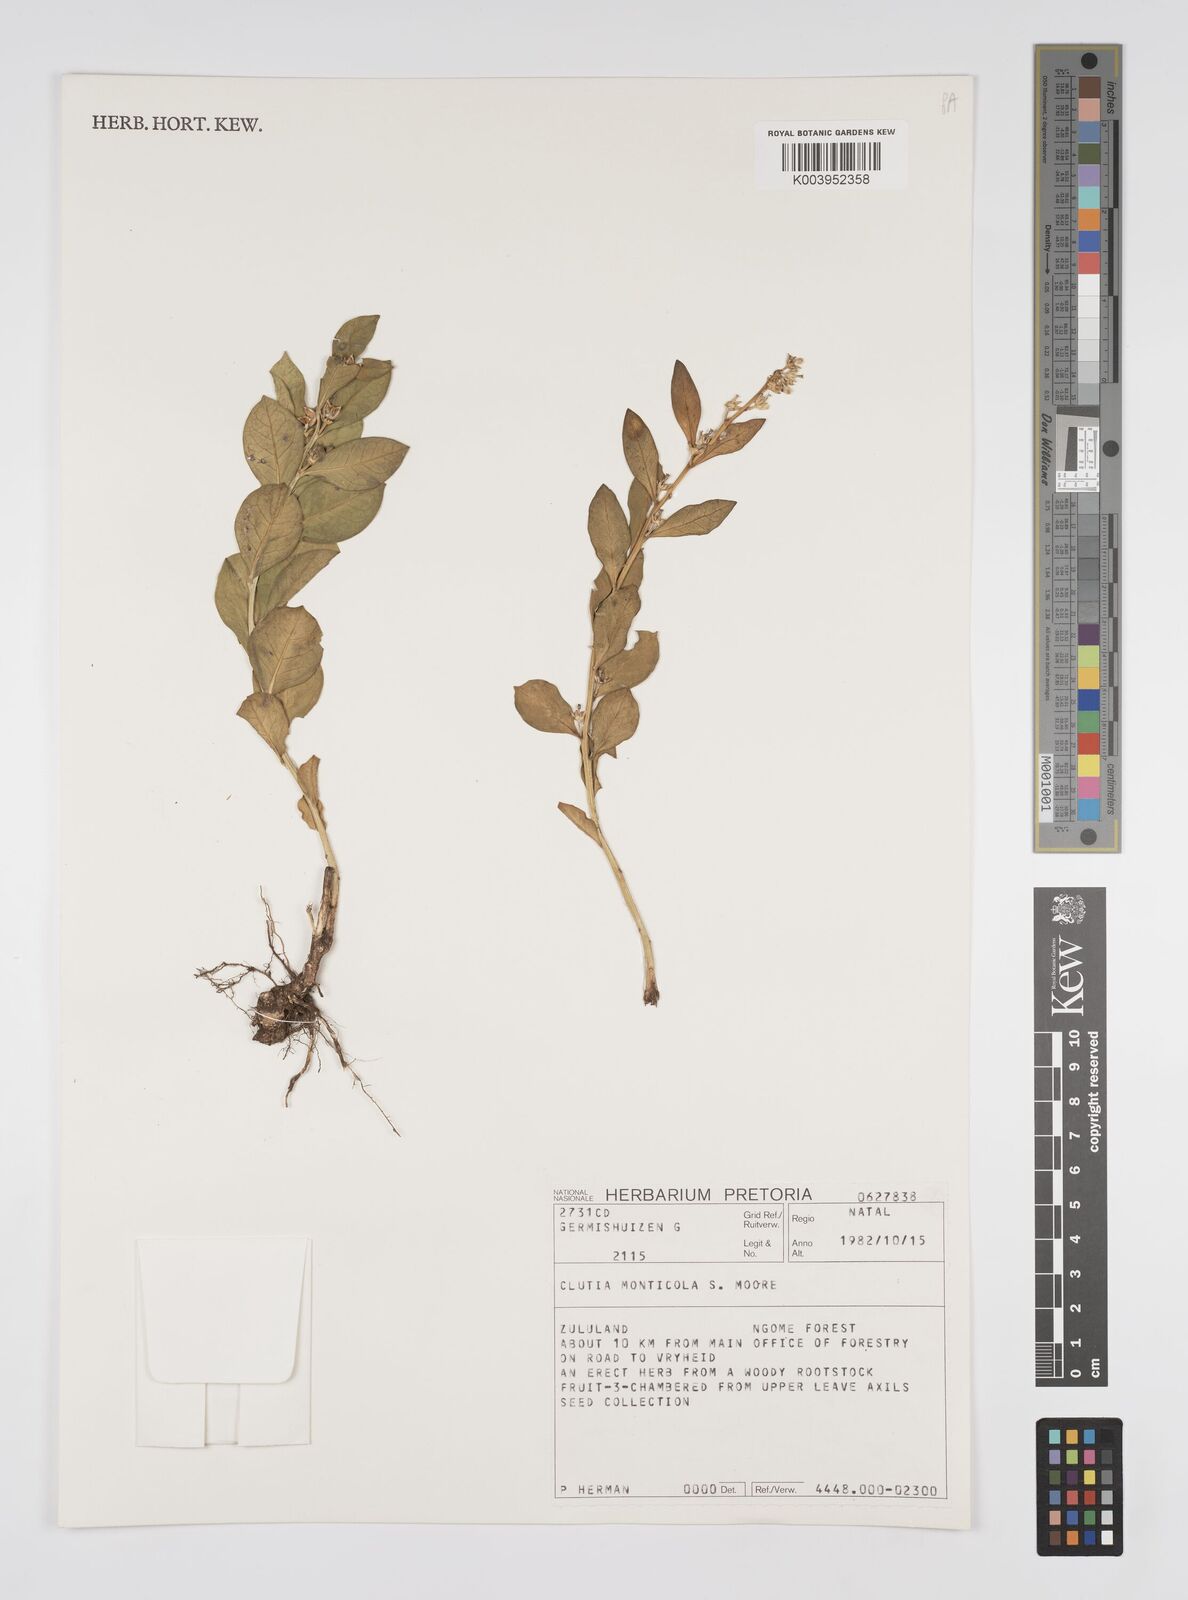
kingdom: Plantae
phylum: Tracheophyta
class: Magnoliopsida
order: Malpighiales
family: Peraceae
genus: Clutia
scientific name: Clutia monticola
